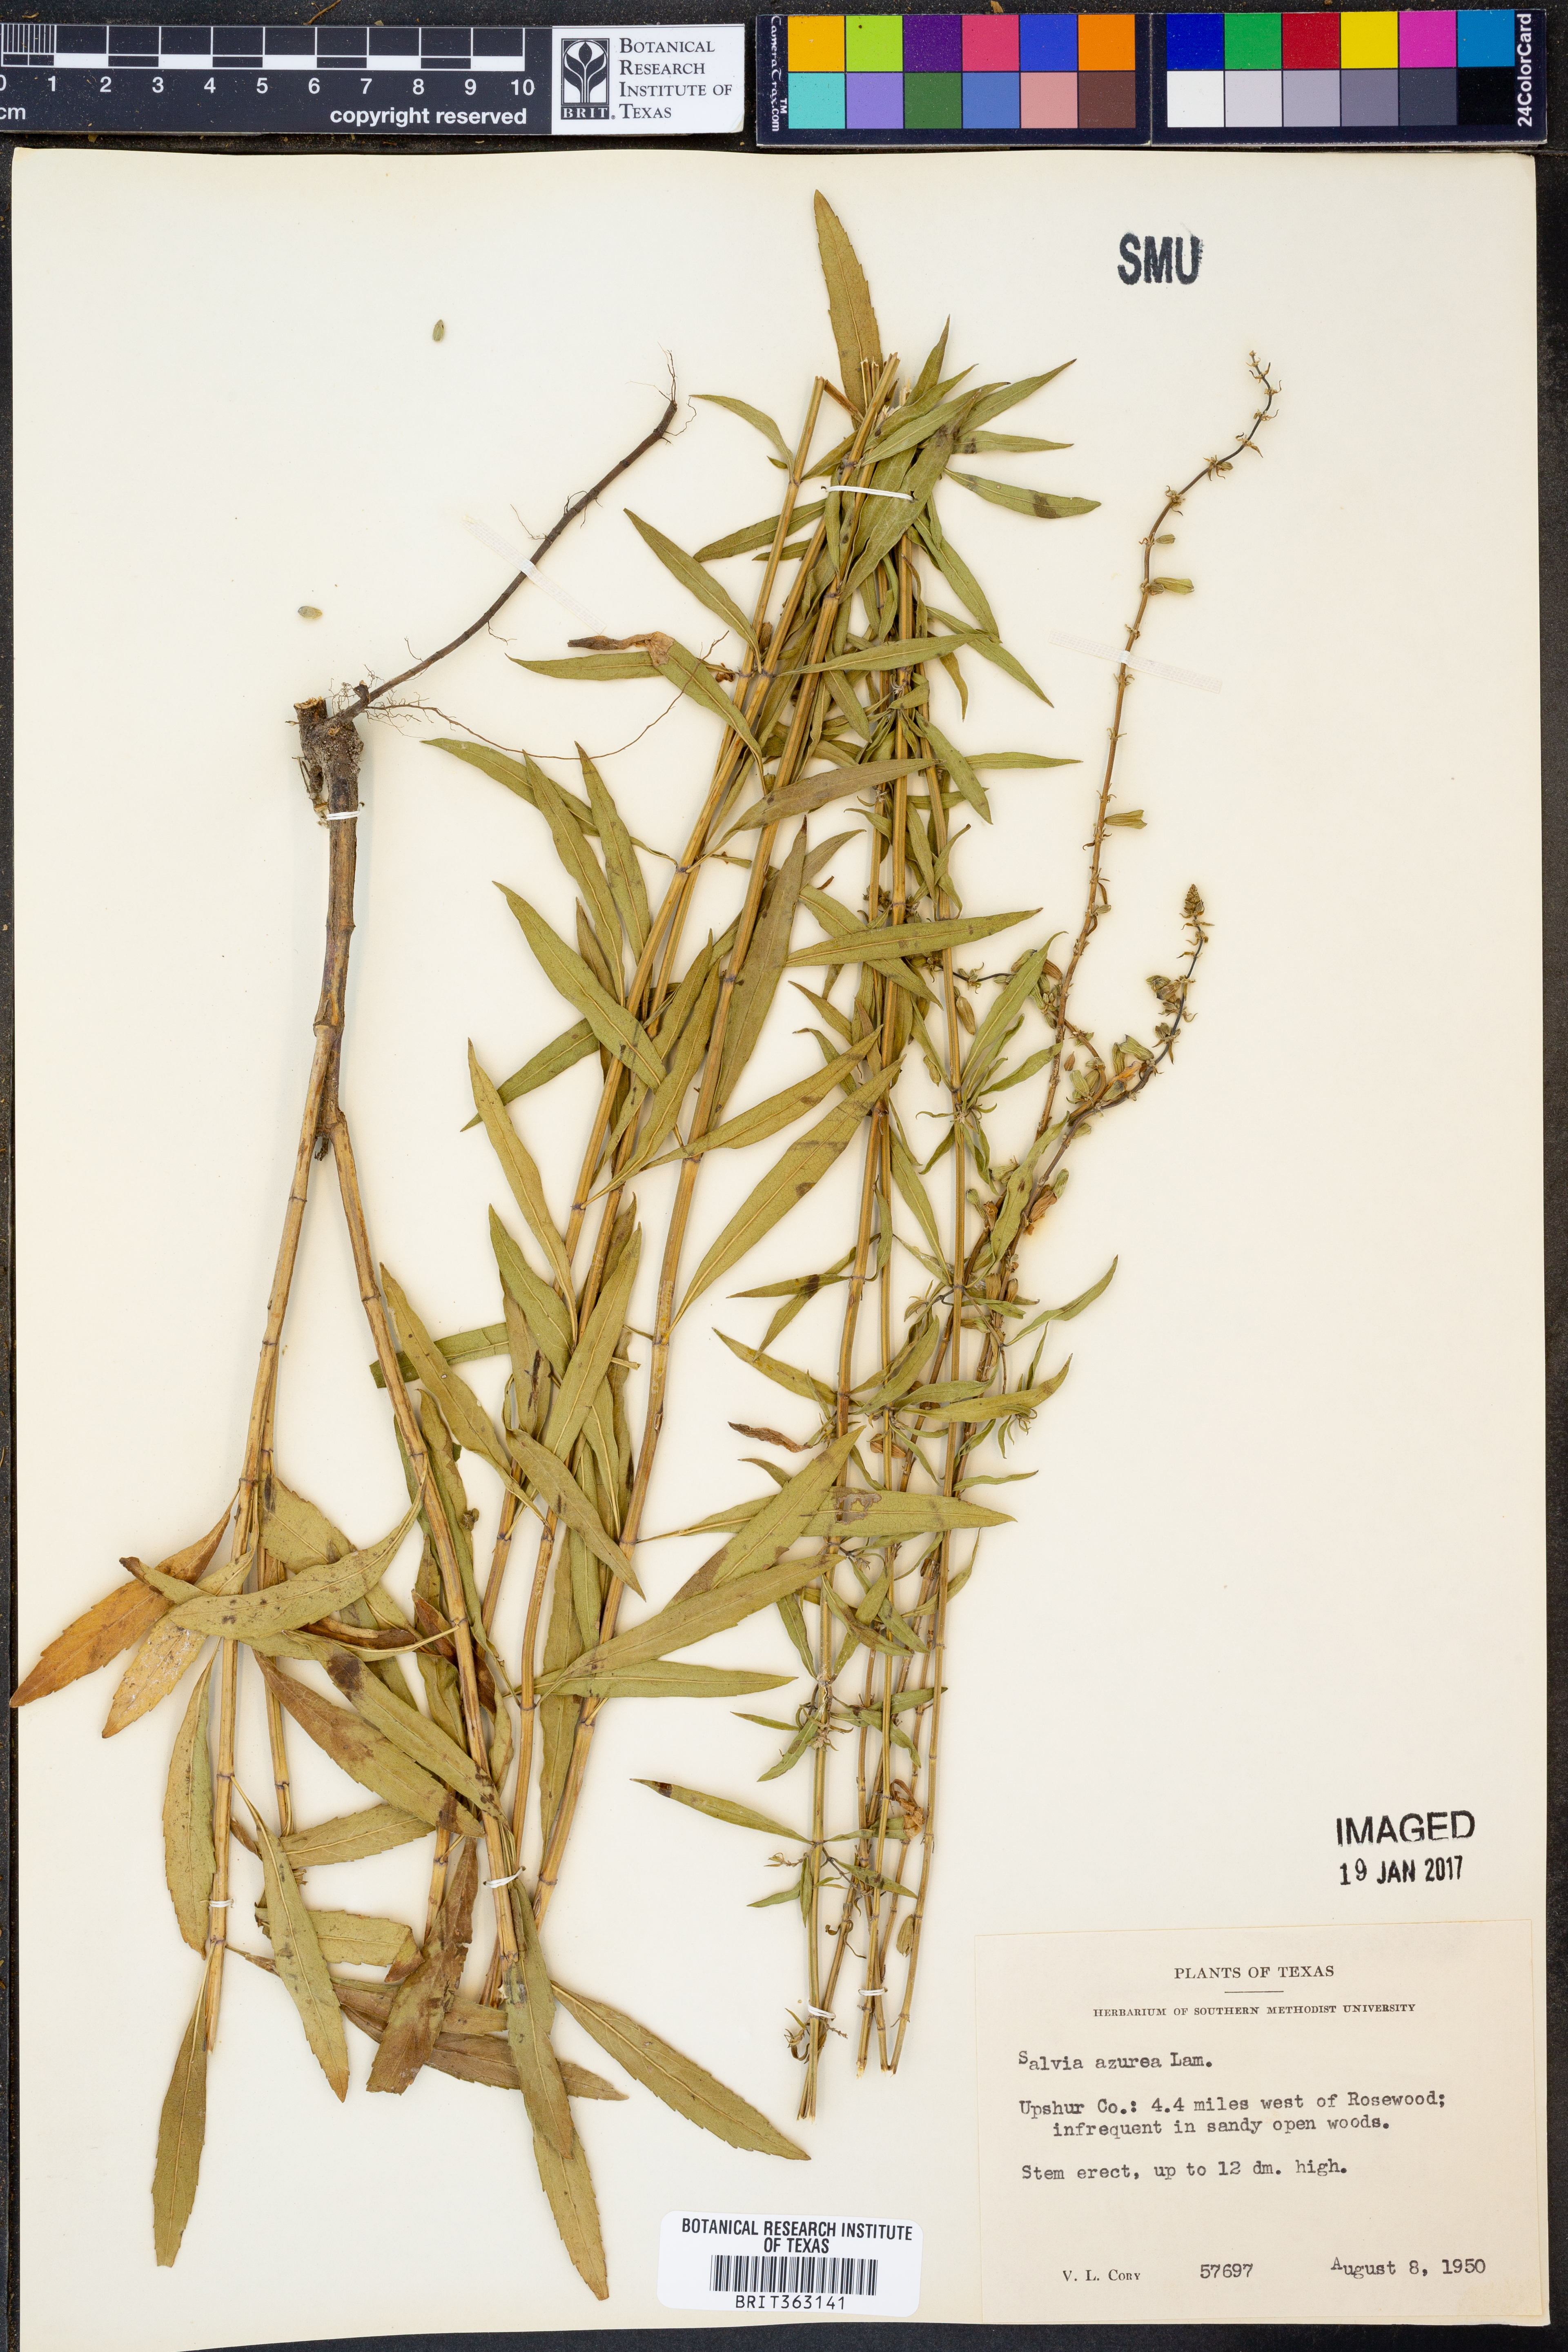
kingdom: Plantae
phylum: Tracheophyta
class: Magnoliopsida
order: Lamiales
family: Lamiaceae
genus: Salvia
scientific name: Salvia azurea
